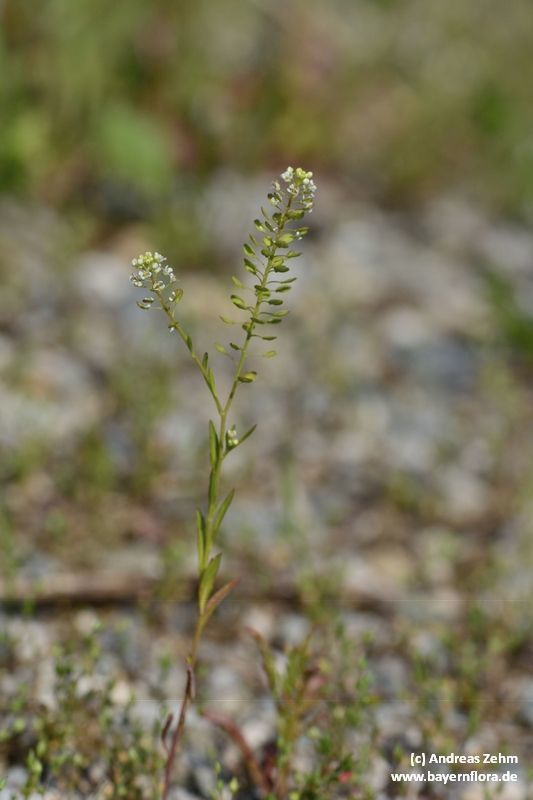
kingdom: Plantae
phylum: Tracheophyta
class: Magnoliopsida
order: Brassicales
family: Brassicaceae
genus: Lepidium
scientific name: Lepidium virginicum
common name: Least pepperwort
